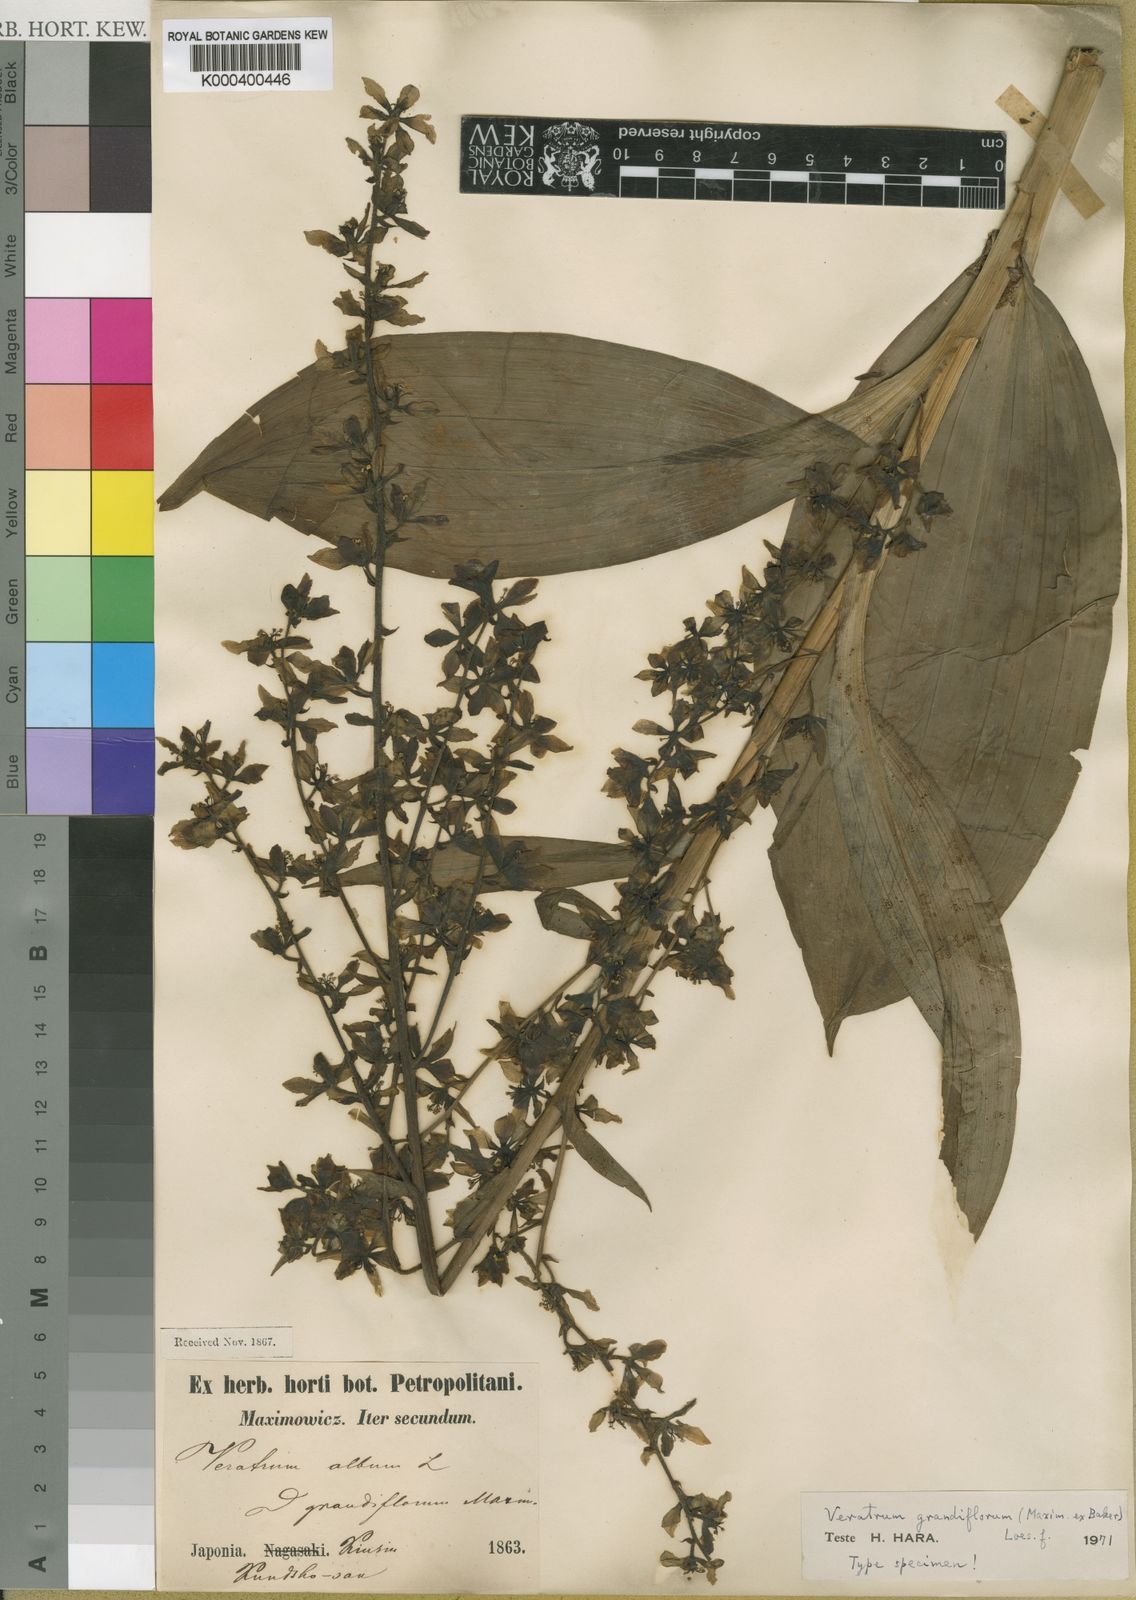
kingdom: Plantae
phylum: Tracheophyta
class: Liliopsida
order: Liliales
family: Melanthiaceae
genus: Veratrum
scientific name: Veratrum album
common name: White veratrum
